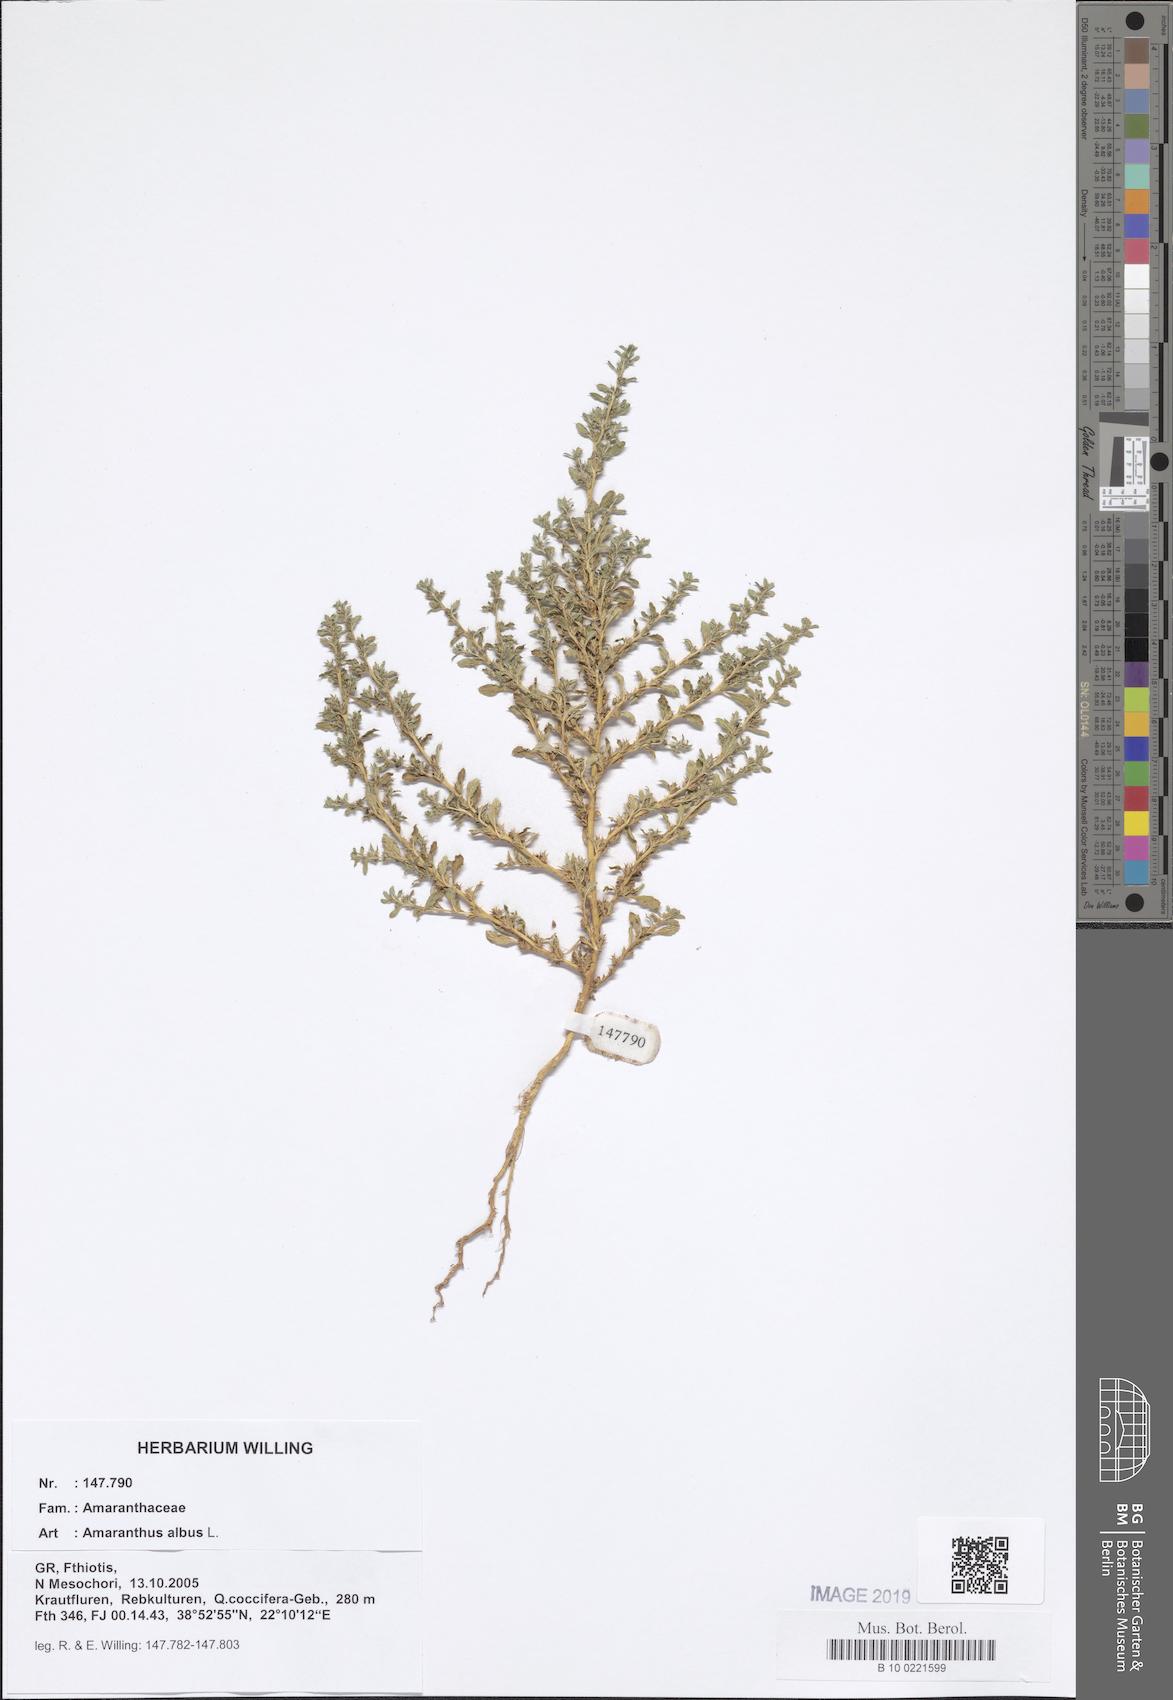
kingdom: Plantae
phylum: Tracheophyta
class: Magnoliopsida
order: Caryophyllales
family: Amaranthaceae
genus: Amaranthus
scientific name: Amaranthus albus
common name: White pigweed
